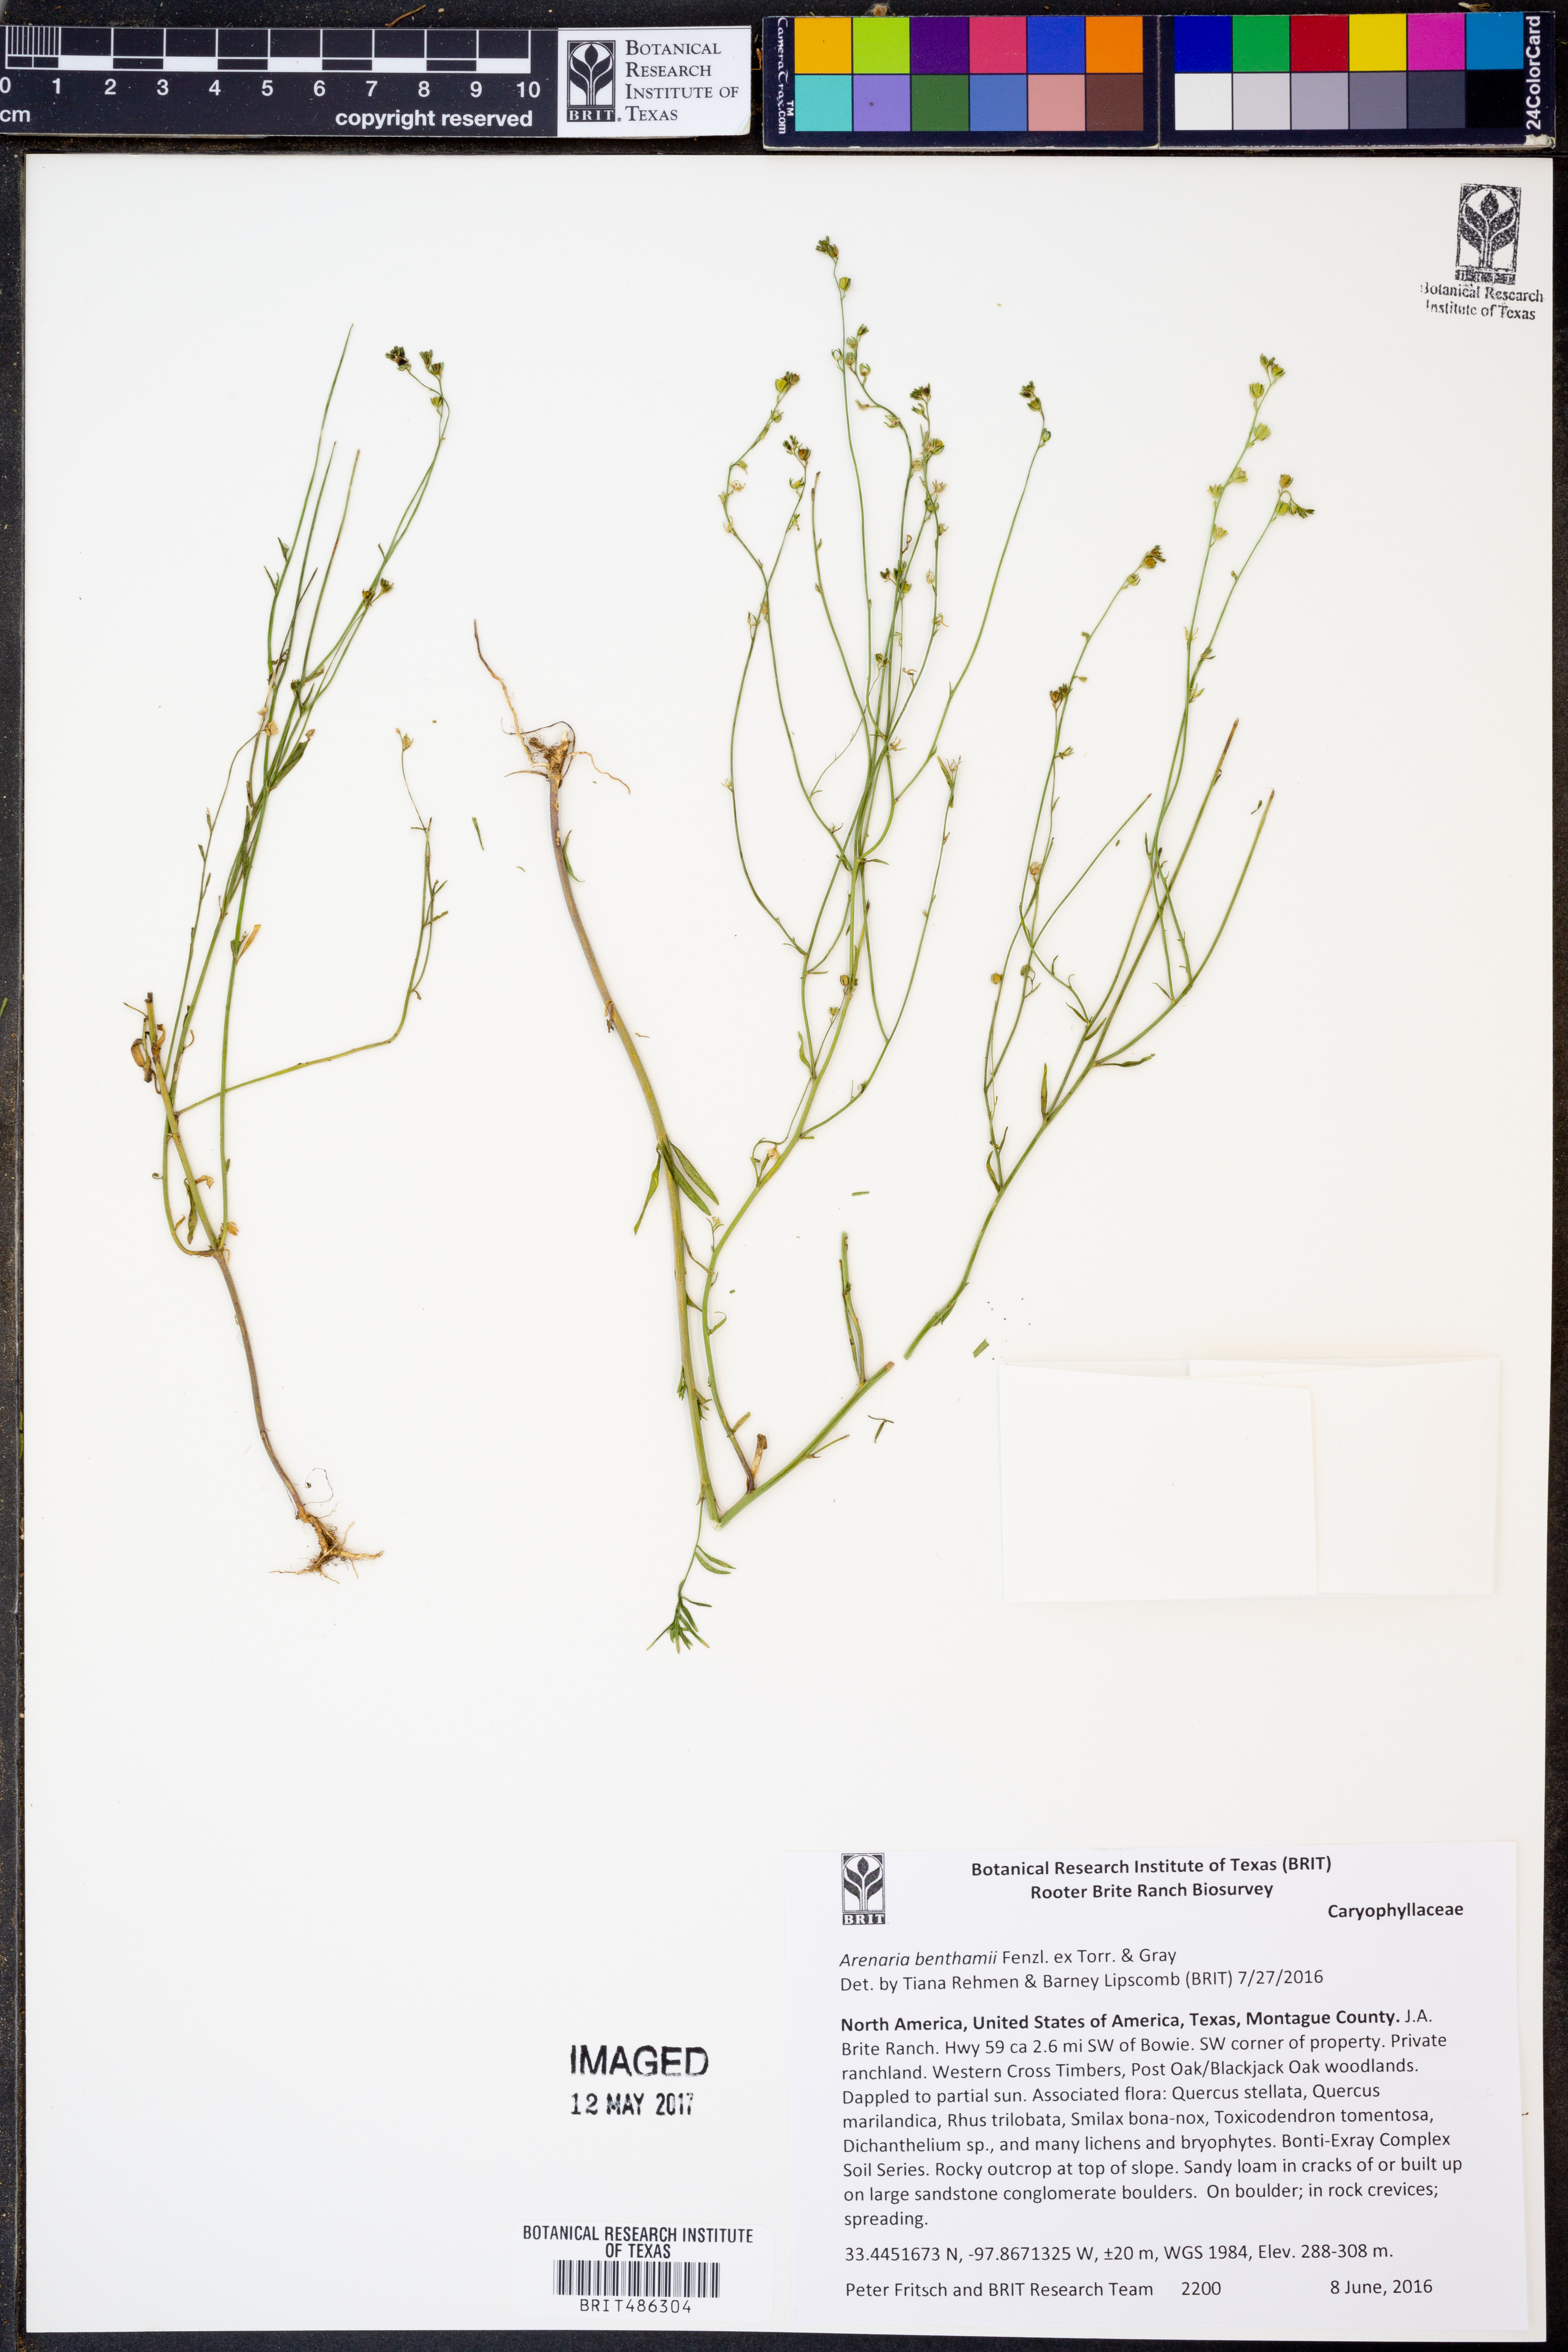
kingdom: Plantae
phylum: Tracheophyta
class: Magnoliopsida
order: Caryophyllales
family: Caryophyllaceae
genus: Arenaria
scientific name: Arenaria benthamii
